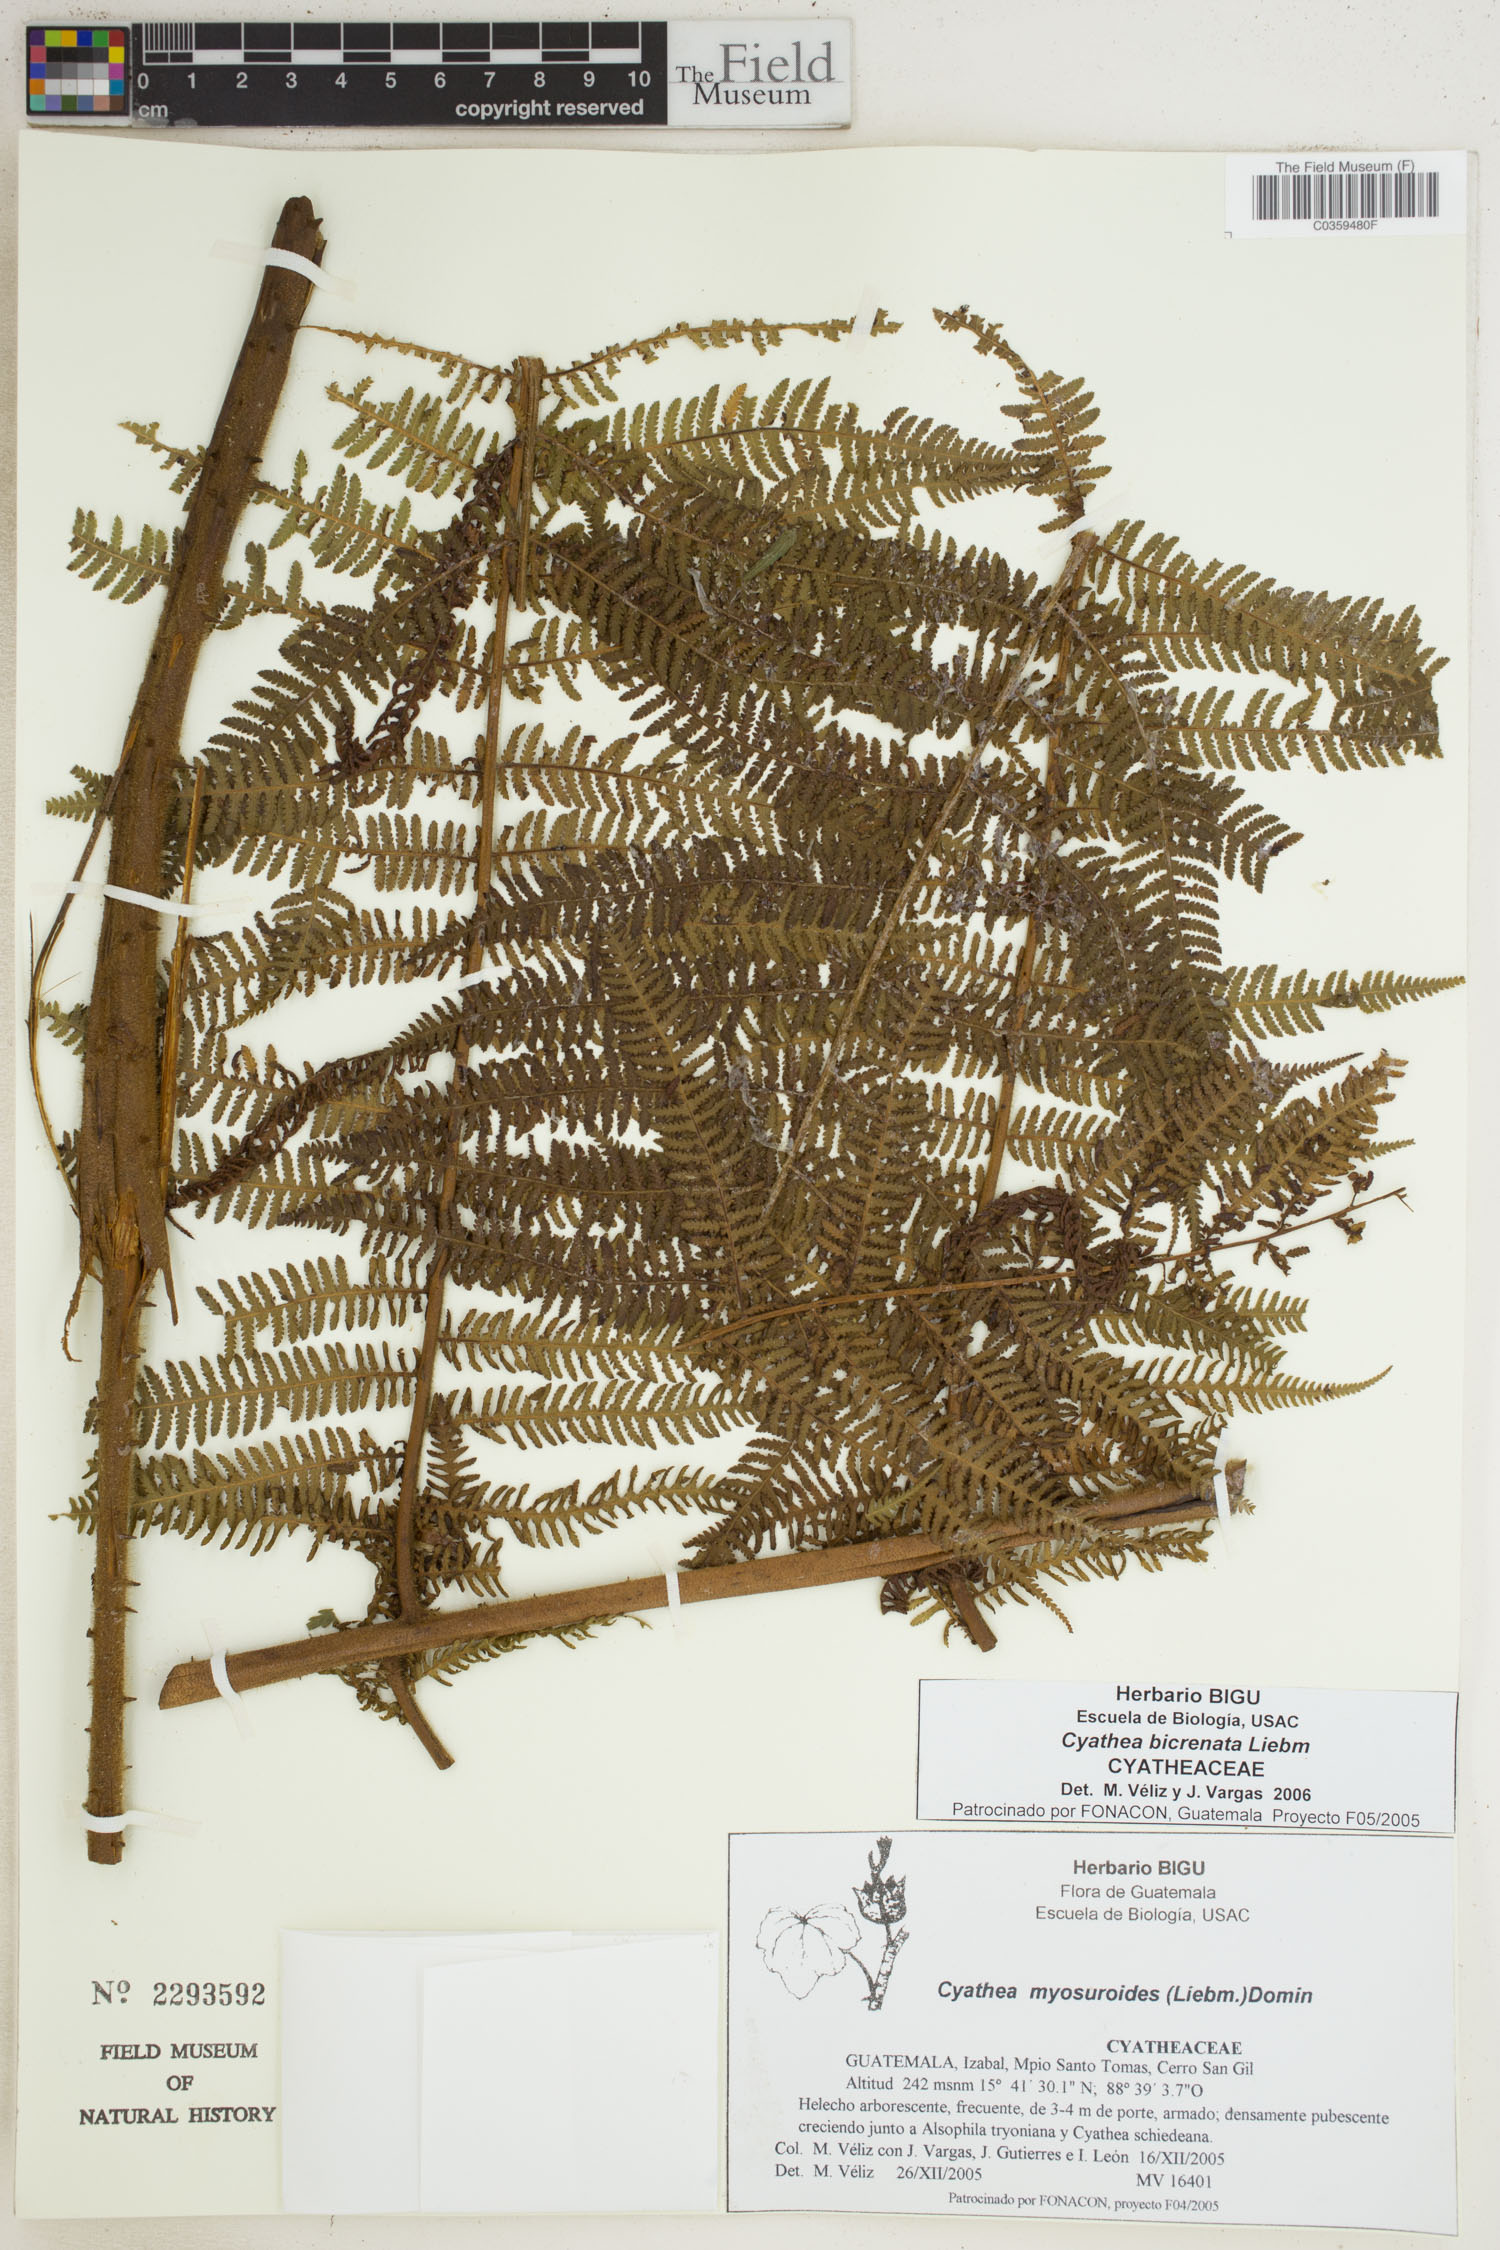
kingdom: Plantae
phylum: Tracheophyta
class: Polypodiopsida
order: Cyatheales
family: Cyatheaceae
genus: Cyathea
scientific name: Cyathea bicrenata
